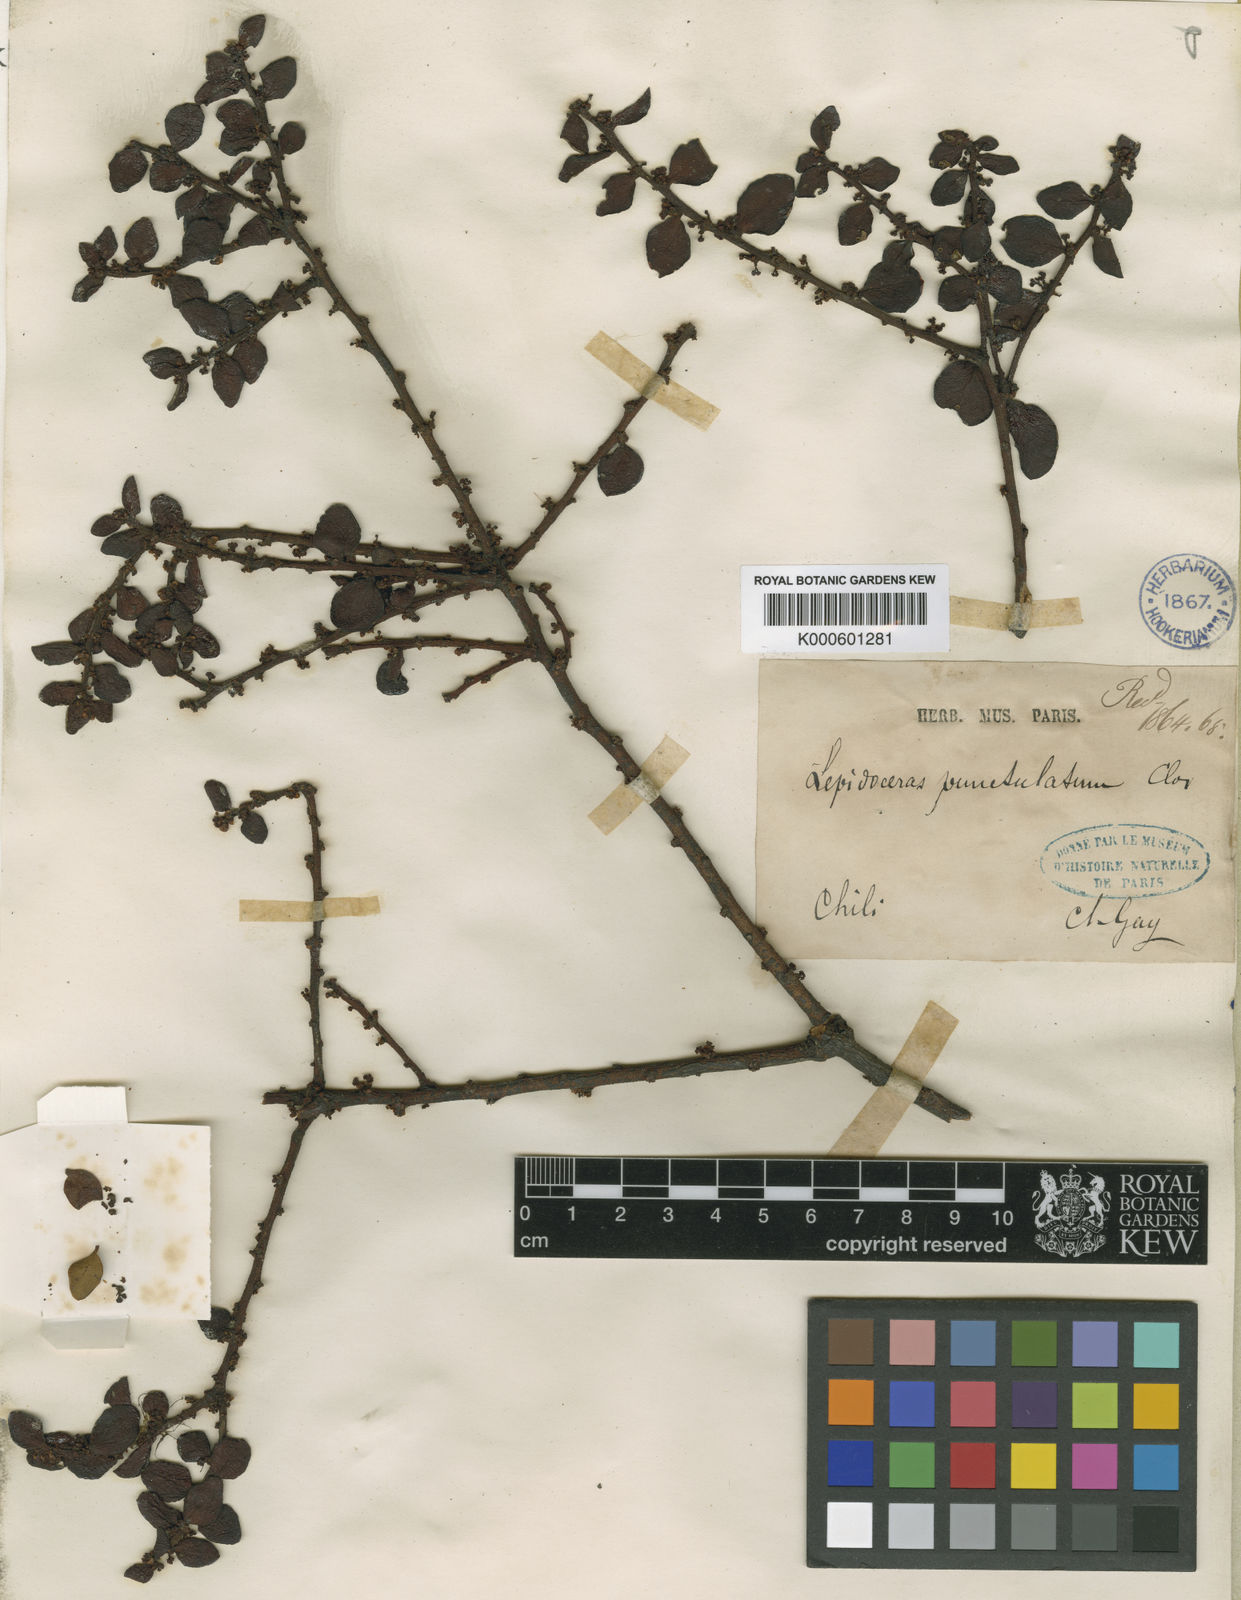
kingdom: Plantae
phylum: Tracheophyta
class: Magnoliopsida
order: Santalales
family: Santalaceae
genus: Antidaphne
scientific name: Antidaphne punctulata
